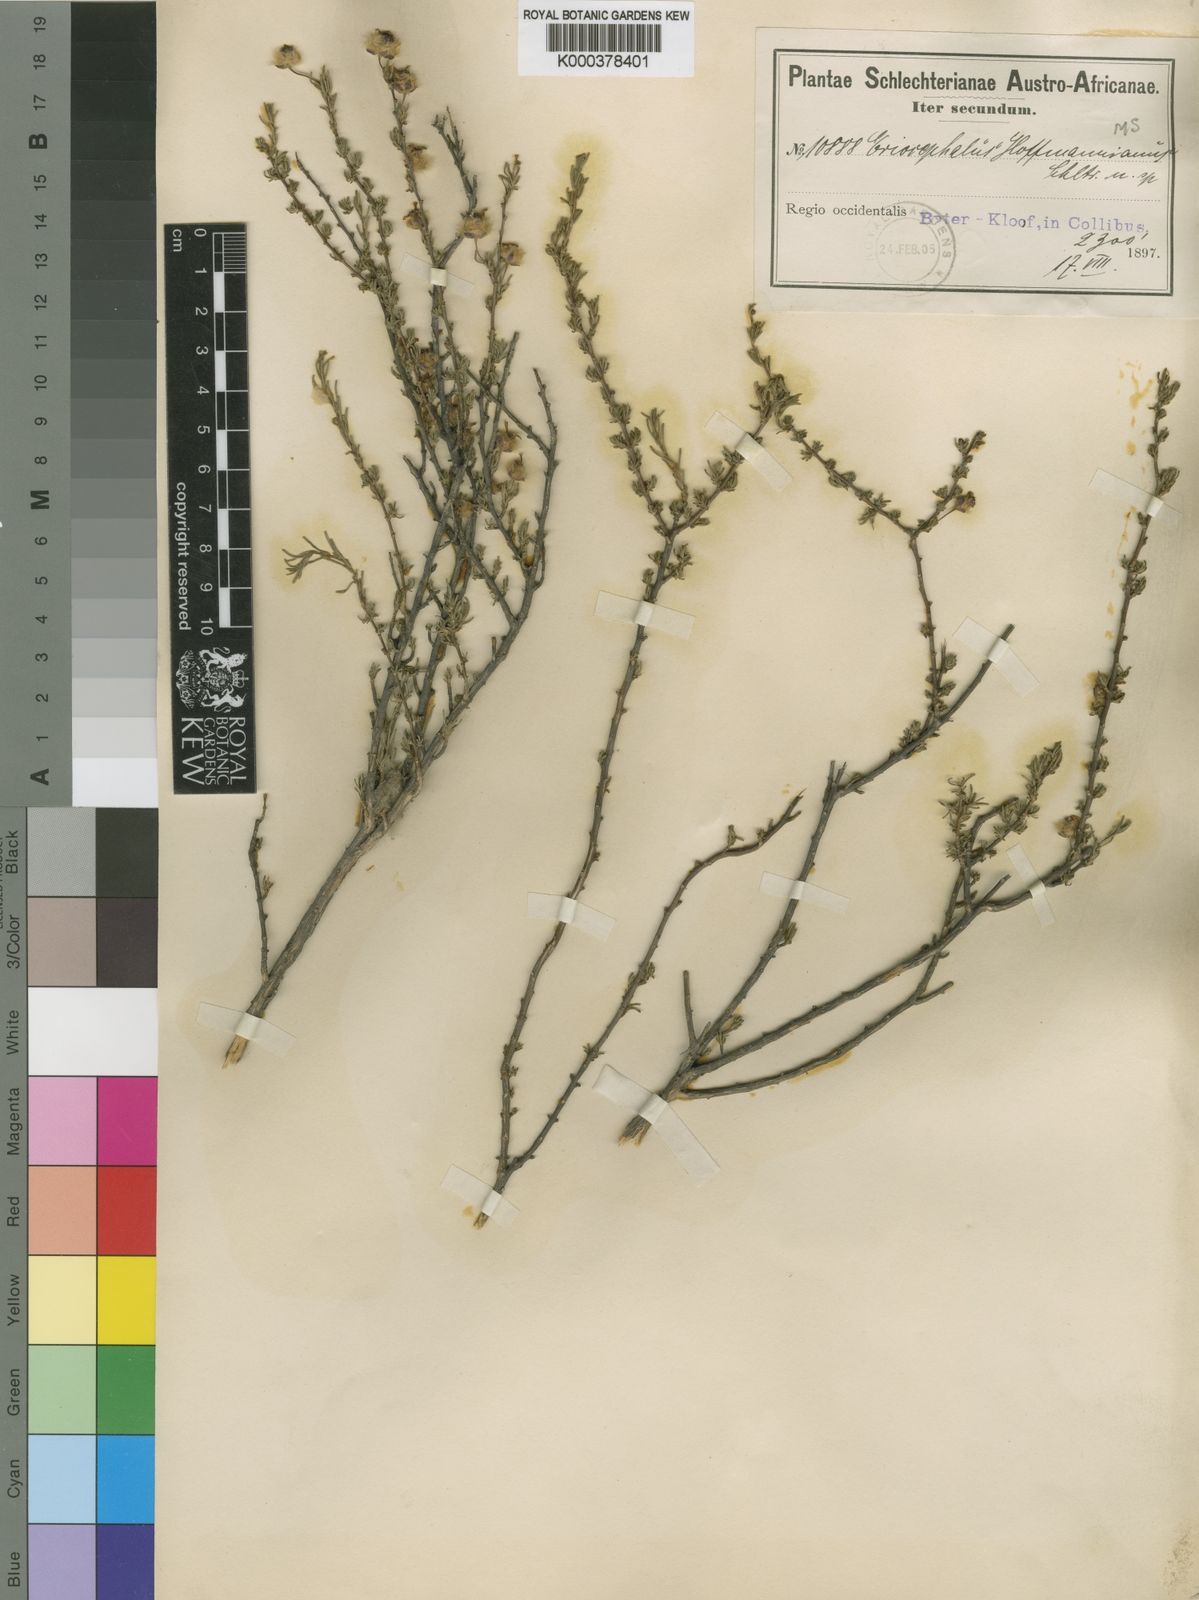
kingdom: Plantae
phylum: Tracheophyta
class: Magnoliopsida
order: Asterales
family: Asteraceae
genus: Eriocephalus
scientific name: Eriocephalus
